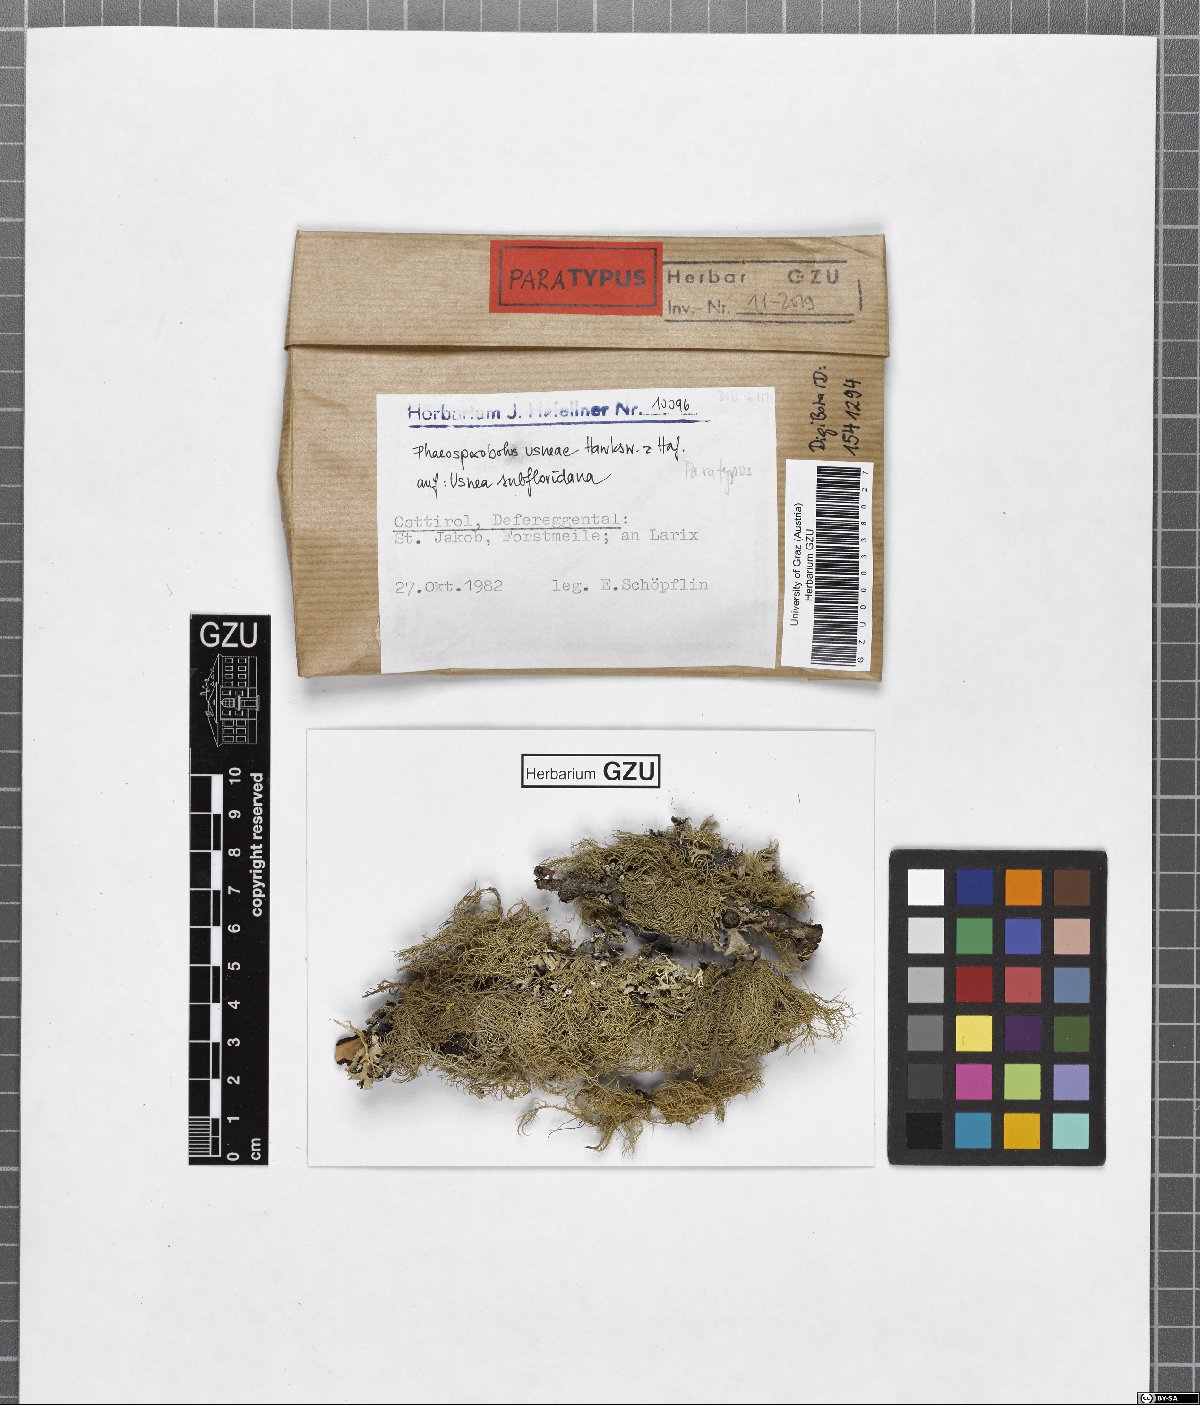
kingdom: Fungi
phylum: Ascomycota
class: Arthoniomycetes
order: Lichenostigmatales
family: Phaeococcomycetaceae
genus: Phaeosporobolus
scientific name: Phaeosporobolus usneae
